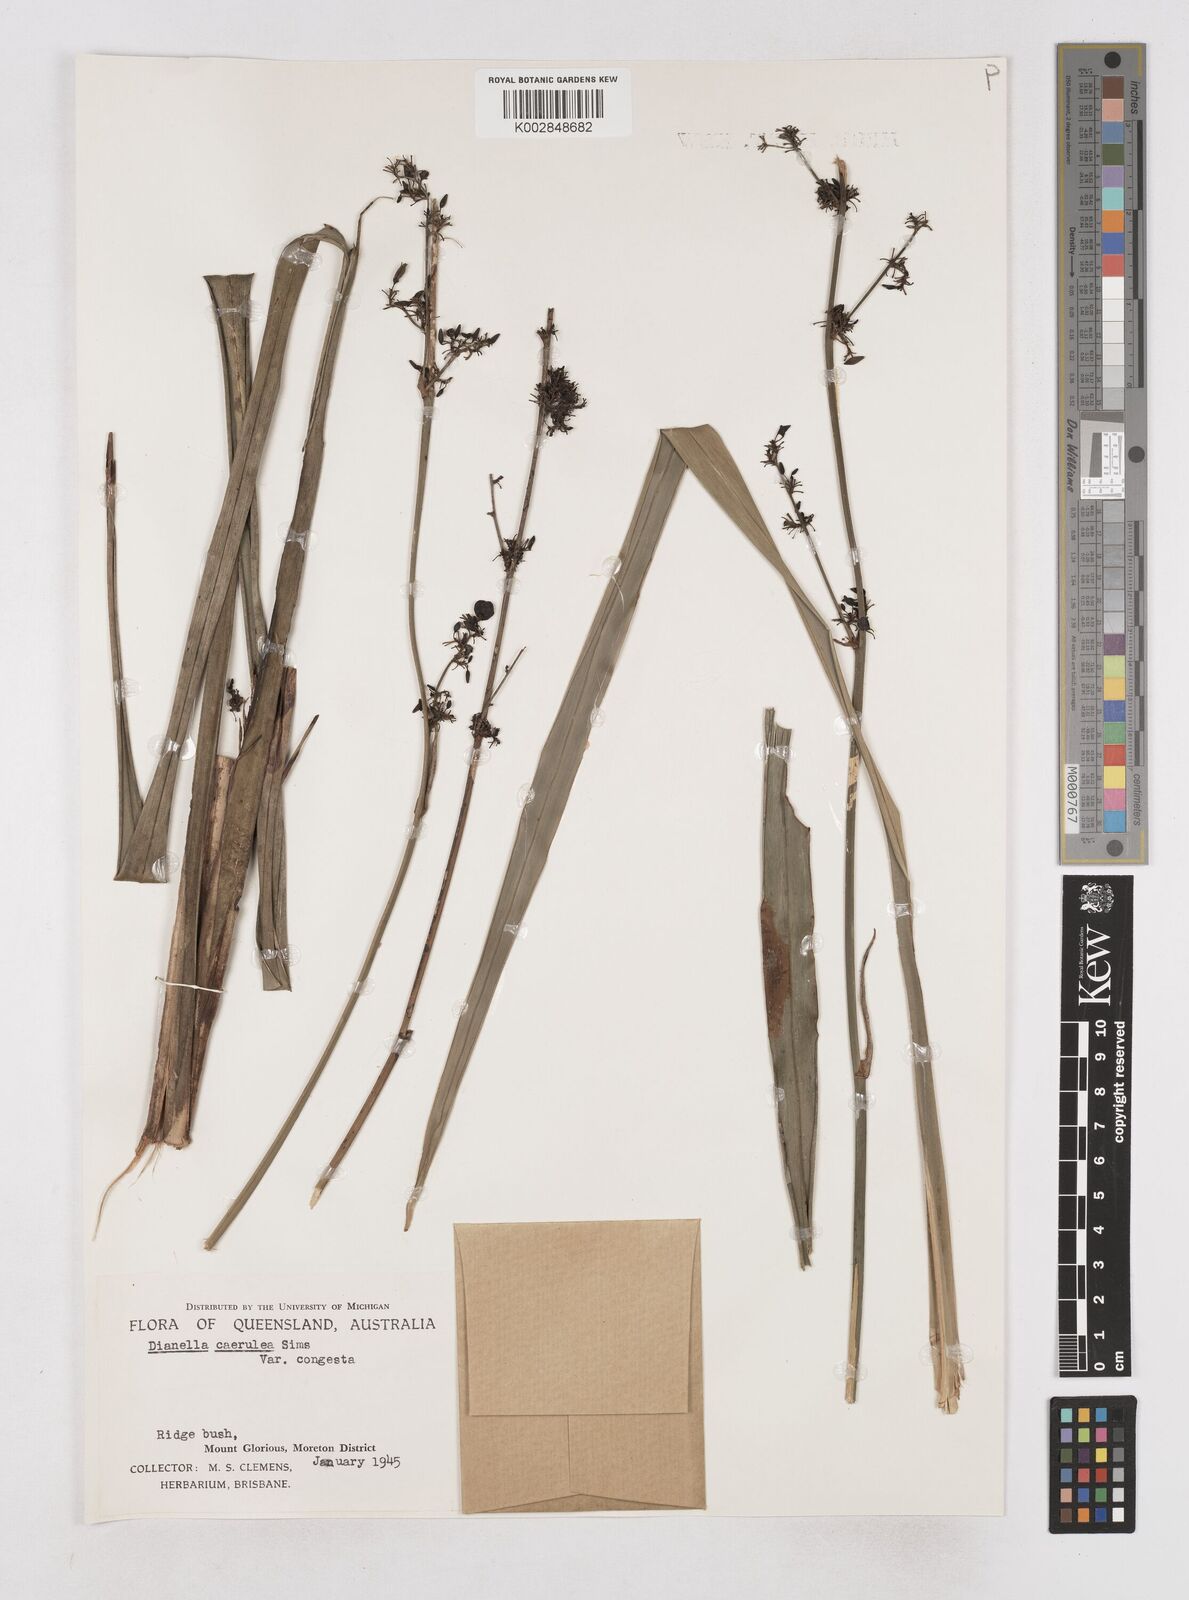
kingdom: Plantae
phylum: Tracheophyta
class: Liliopsida
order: Asparagales
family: Asphodelaceae
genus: Dianella
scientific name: Dianella congesta
